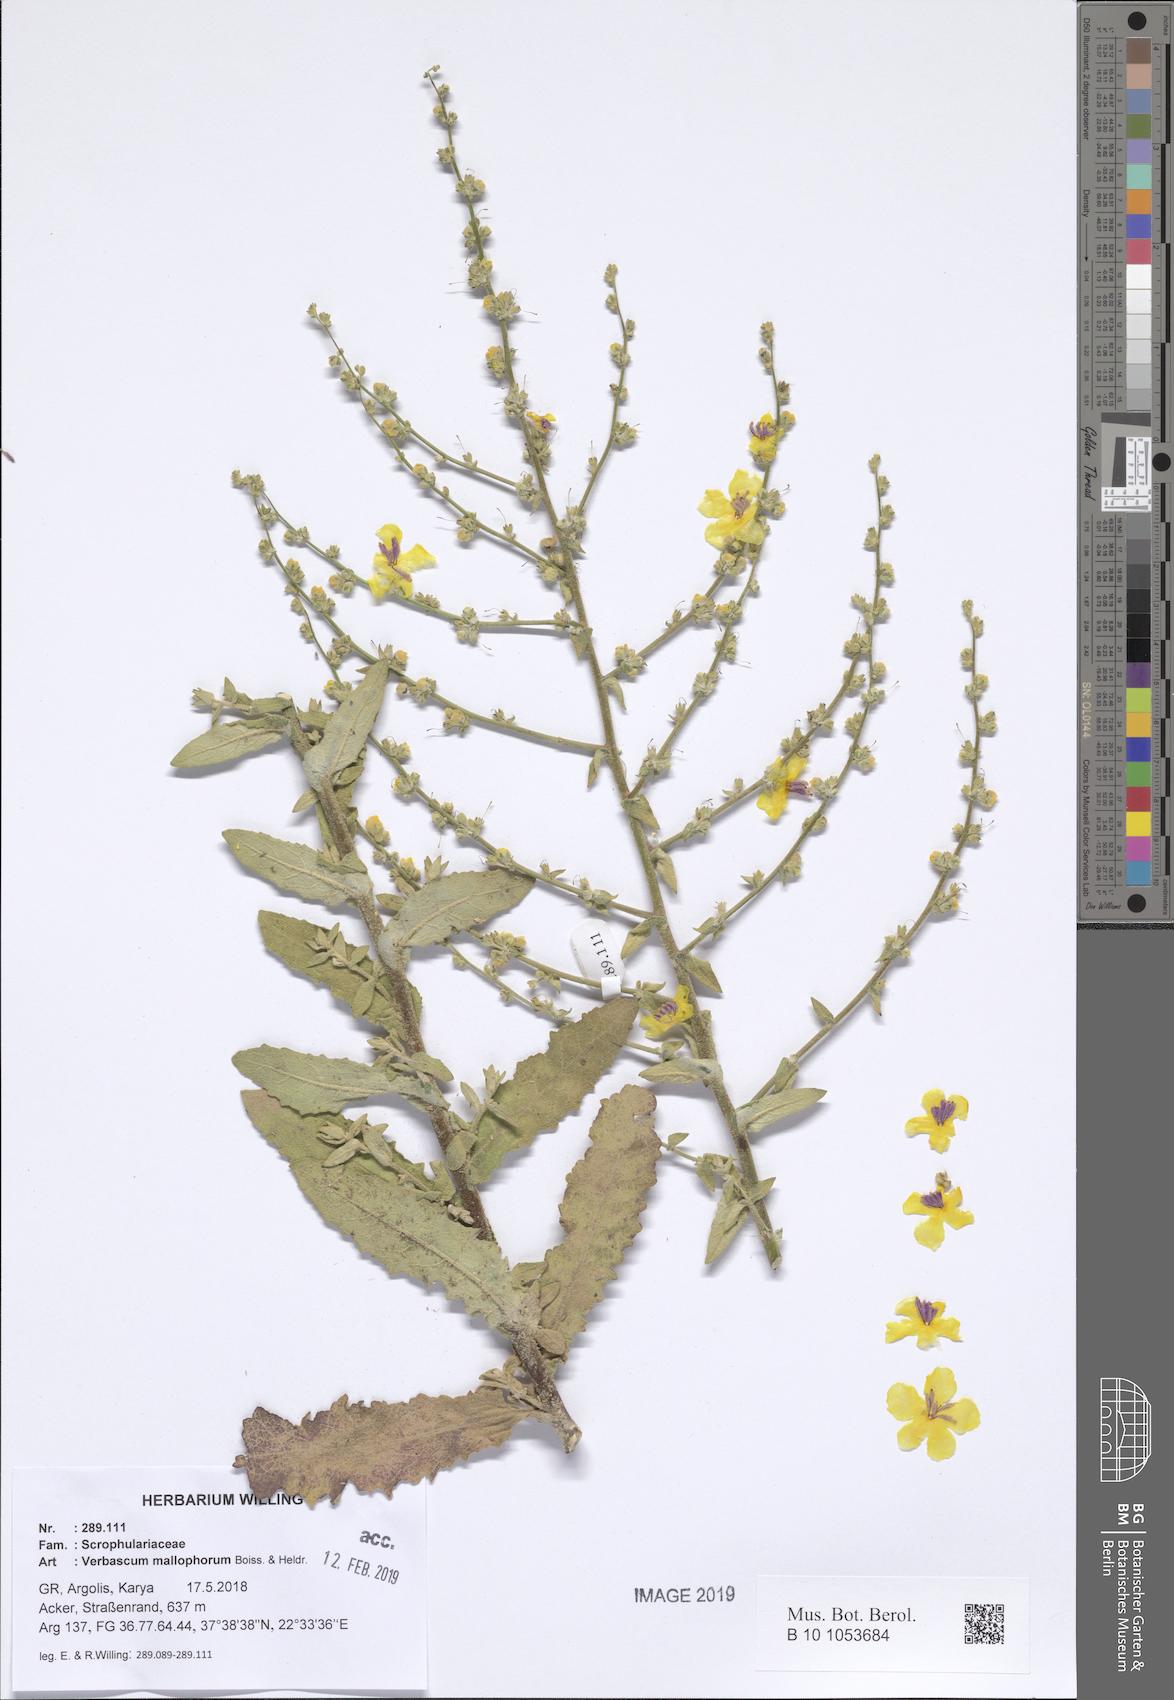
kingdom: Plantae
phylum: Tracheophyta
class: Magnoliopsida
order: Lamiales
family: Scrophulariaceae
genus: Verbascum
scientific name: Verbascum mallophorum
